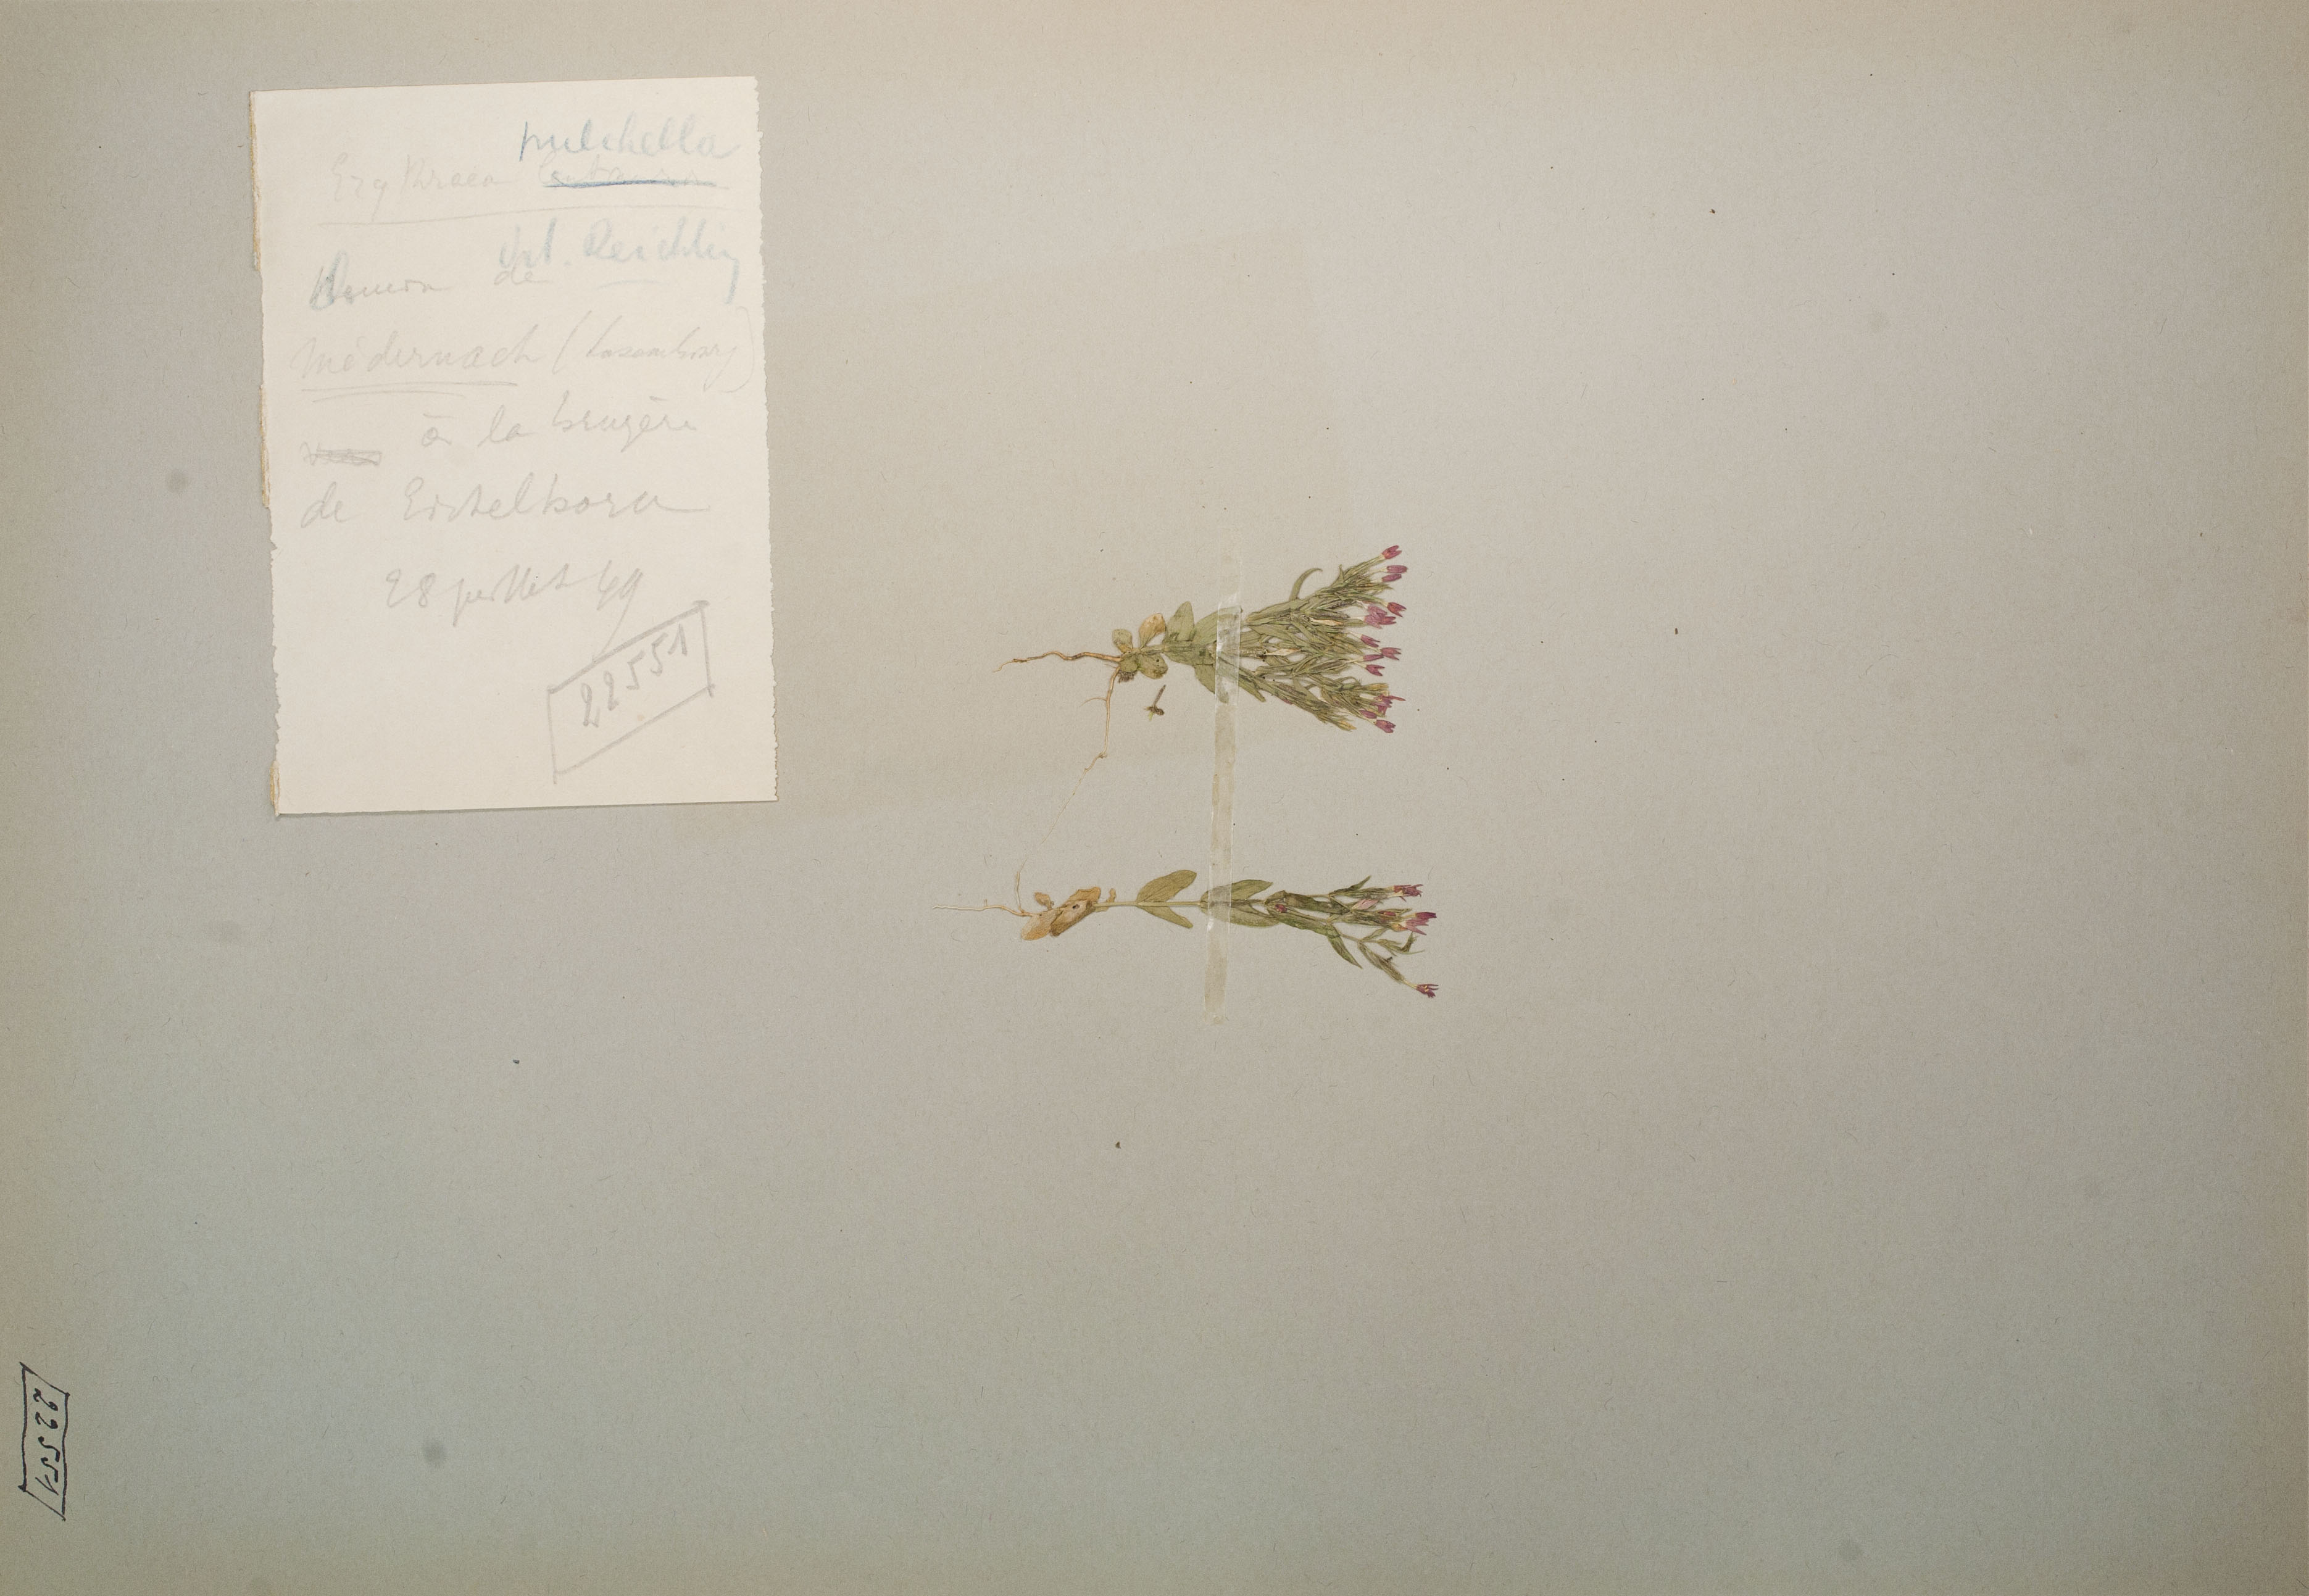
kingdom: Plantae
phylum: Tracheophyta
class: Magnoliopsida
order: Gentianales
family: Gentianaceae
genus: Centaurium
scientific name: Centaurium pulchellum
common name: Lesser centaury
